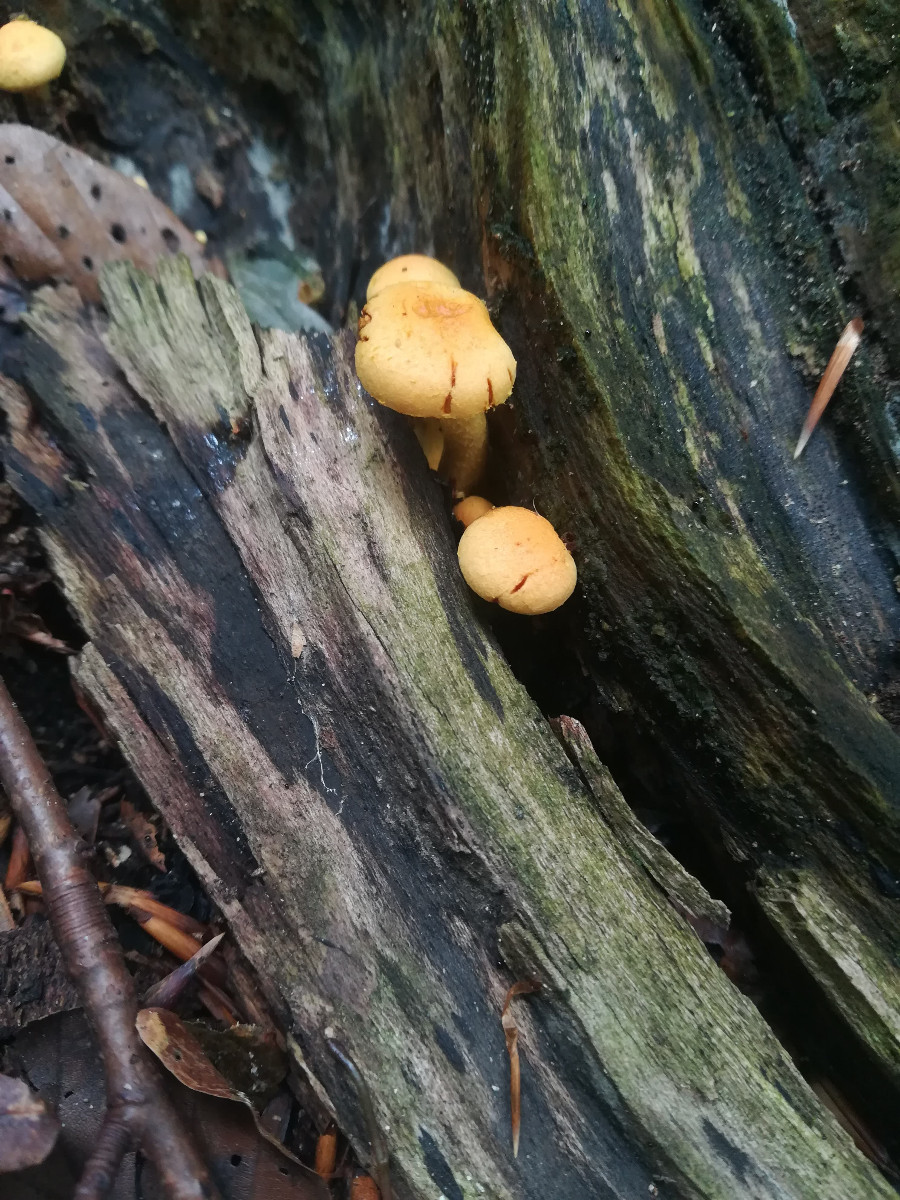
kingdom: Fungi
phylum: Basidiomycota
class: Agaricomycetes
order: Agaricales
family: Strophariaceae
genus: Hypholoma
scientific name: Hypholoma fasciculare
